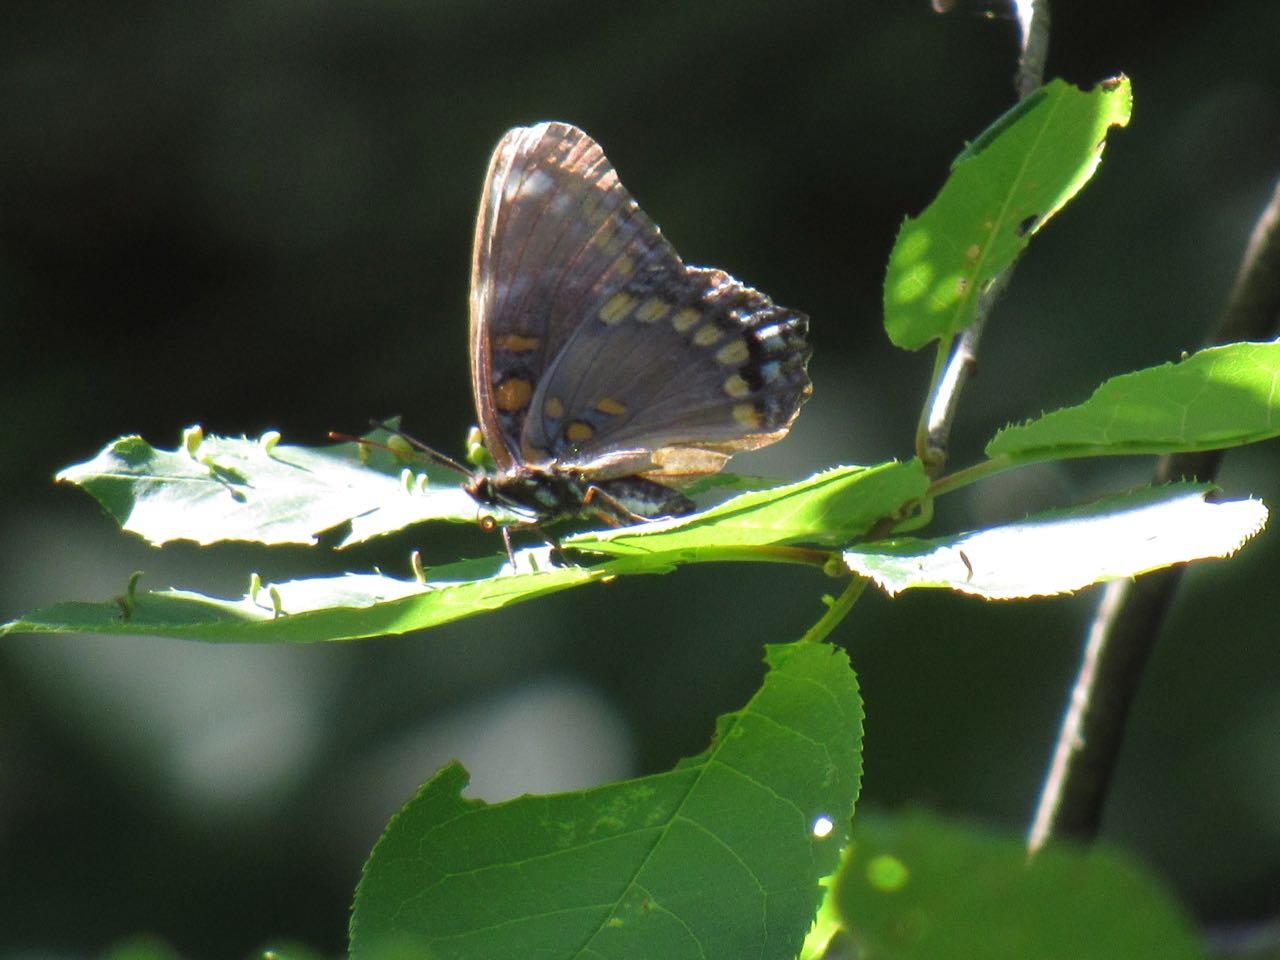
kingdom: Animalia
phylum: Arthropoda
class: Insecta
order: Lepidoptera
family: Nymphalidae
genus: Limenitis
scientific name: Limenitis
